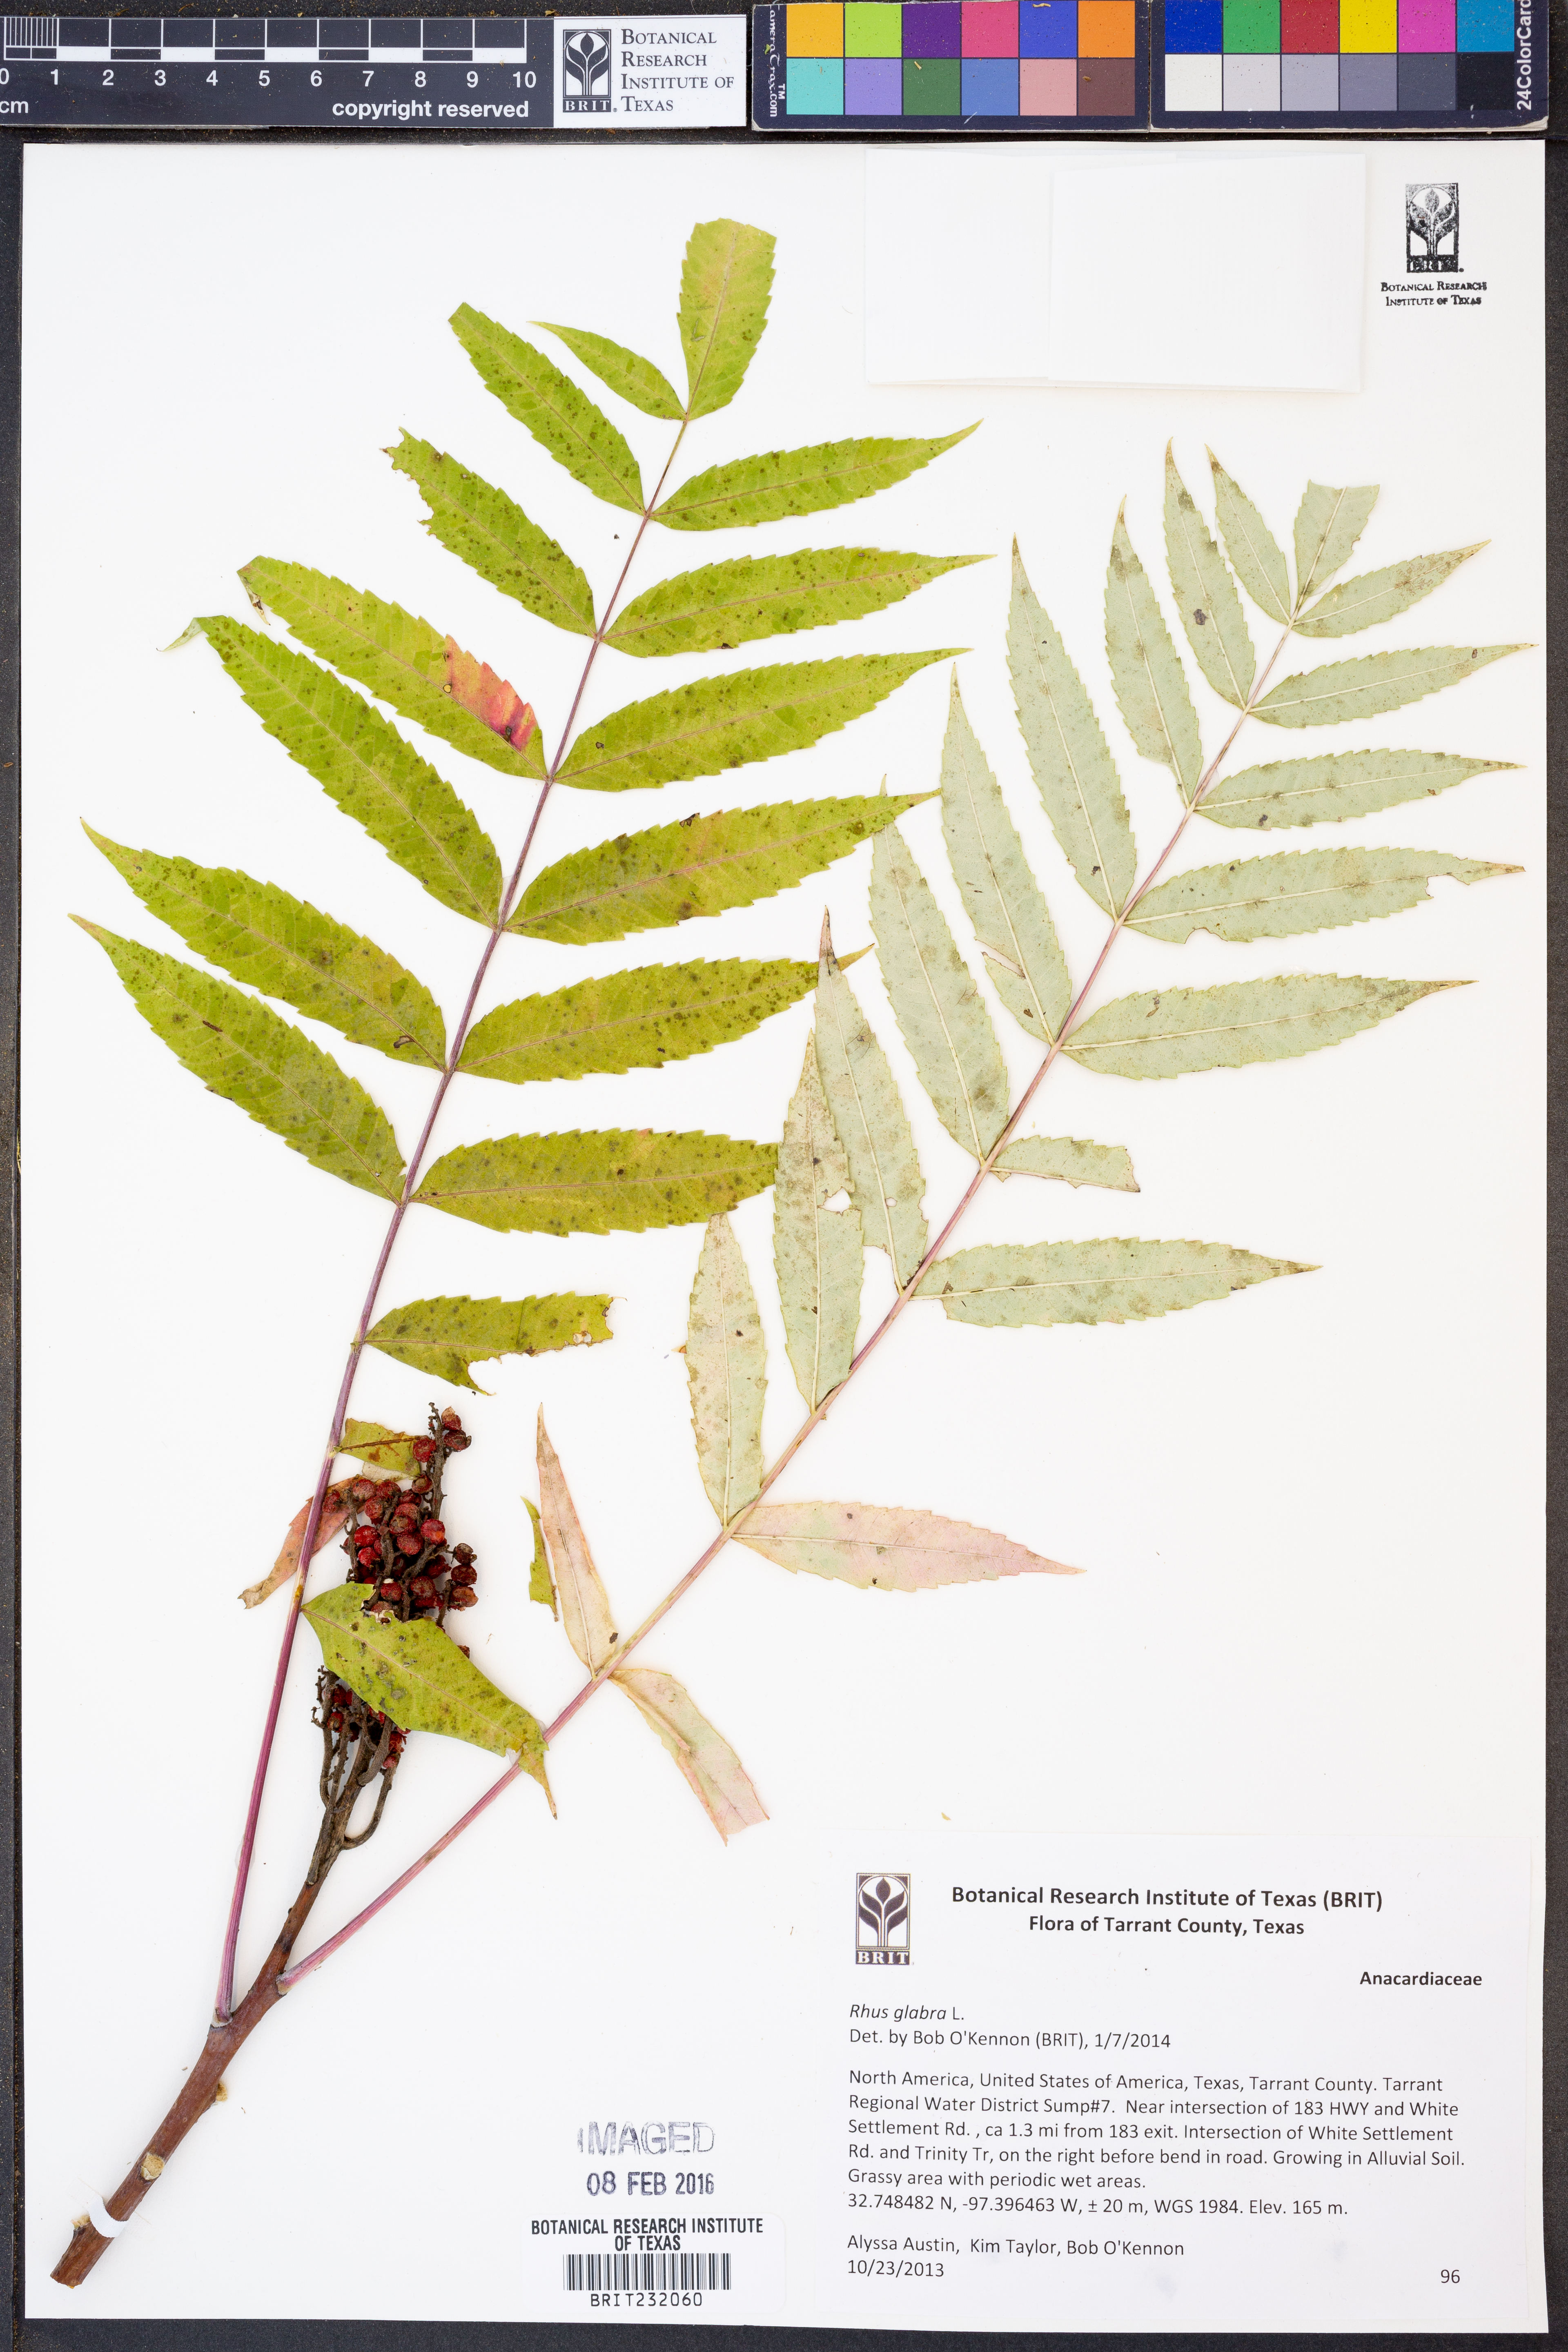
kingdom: Plantae
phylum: Tracheophyta
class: Magnoliopsida
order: Sapindales
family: Anacardiaceae
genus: Rhus
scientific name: Rhus glabra
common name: Scarlet sumac
